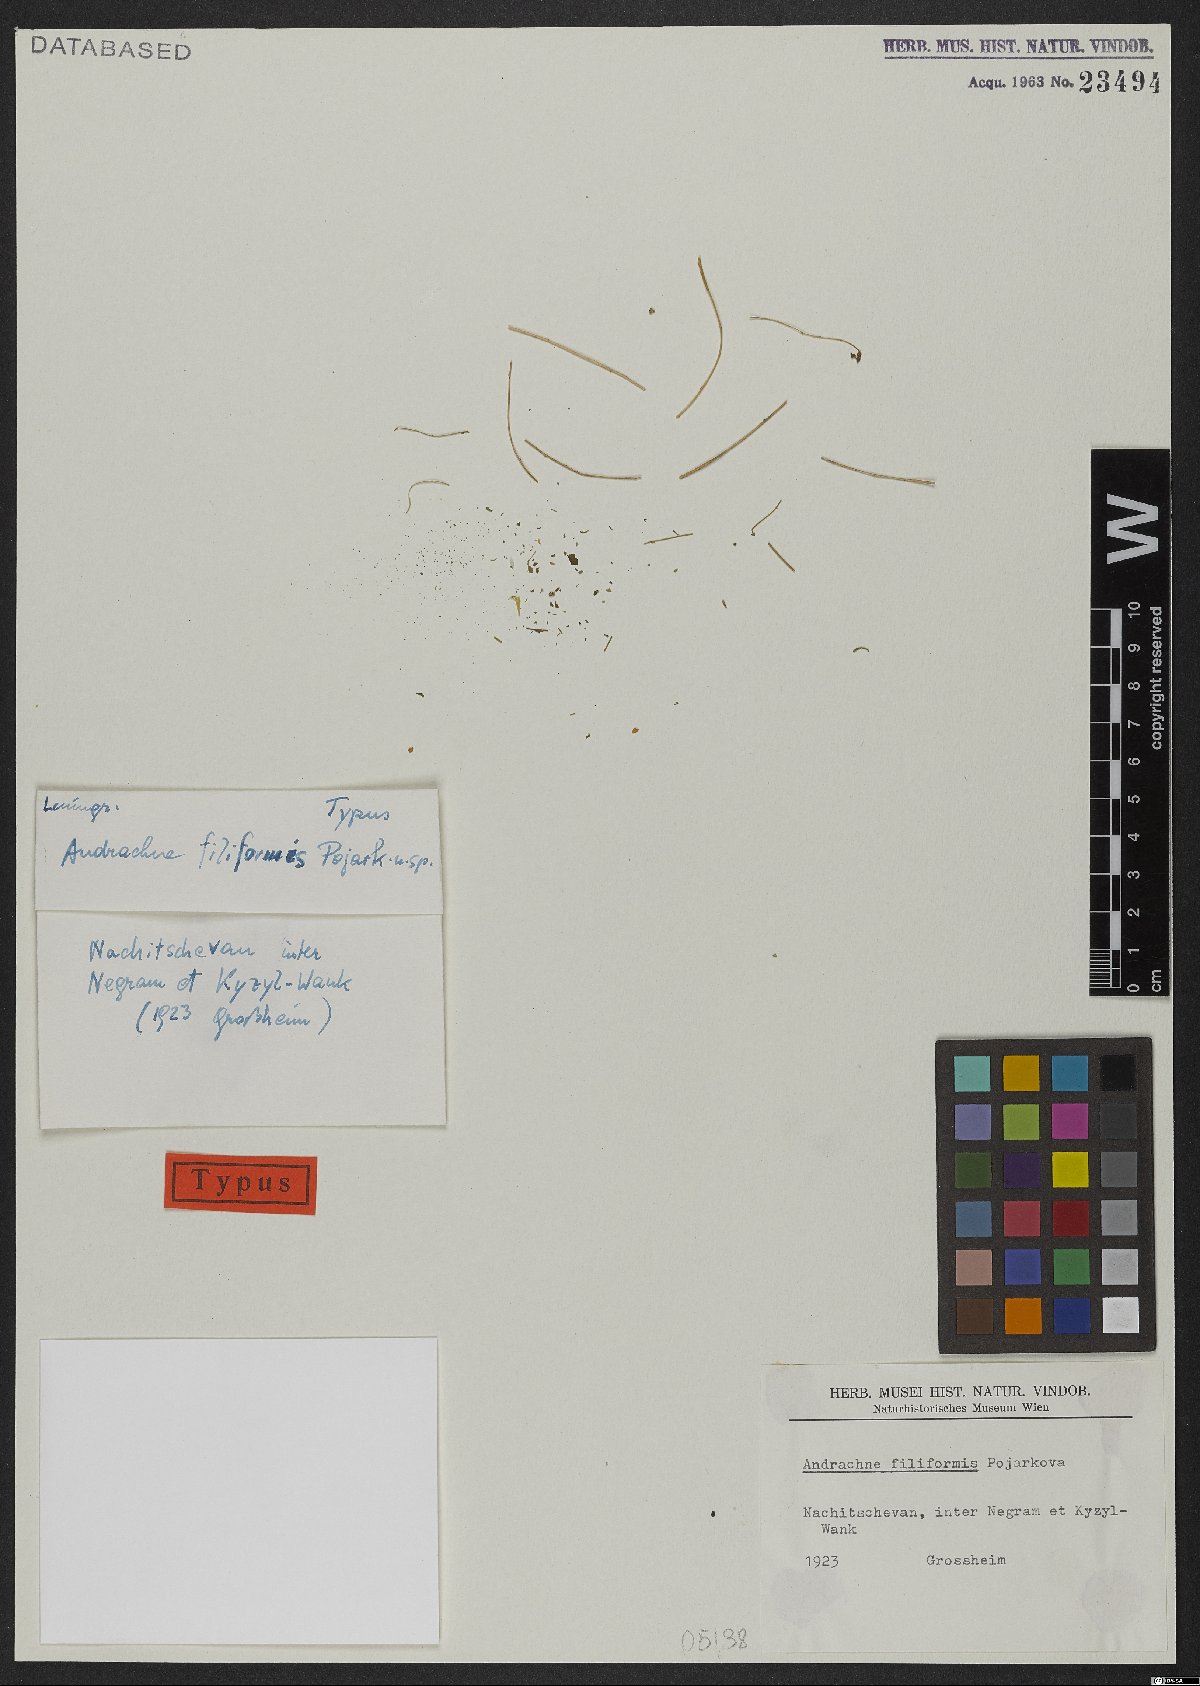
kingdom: Plantae
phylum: Tracheophyta
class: Magnoliopsida
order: Malpighiales
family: Phyllanthaceae
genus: Andrachne
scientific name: Andrachne filiformis
